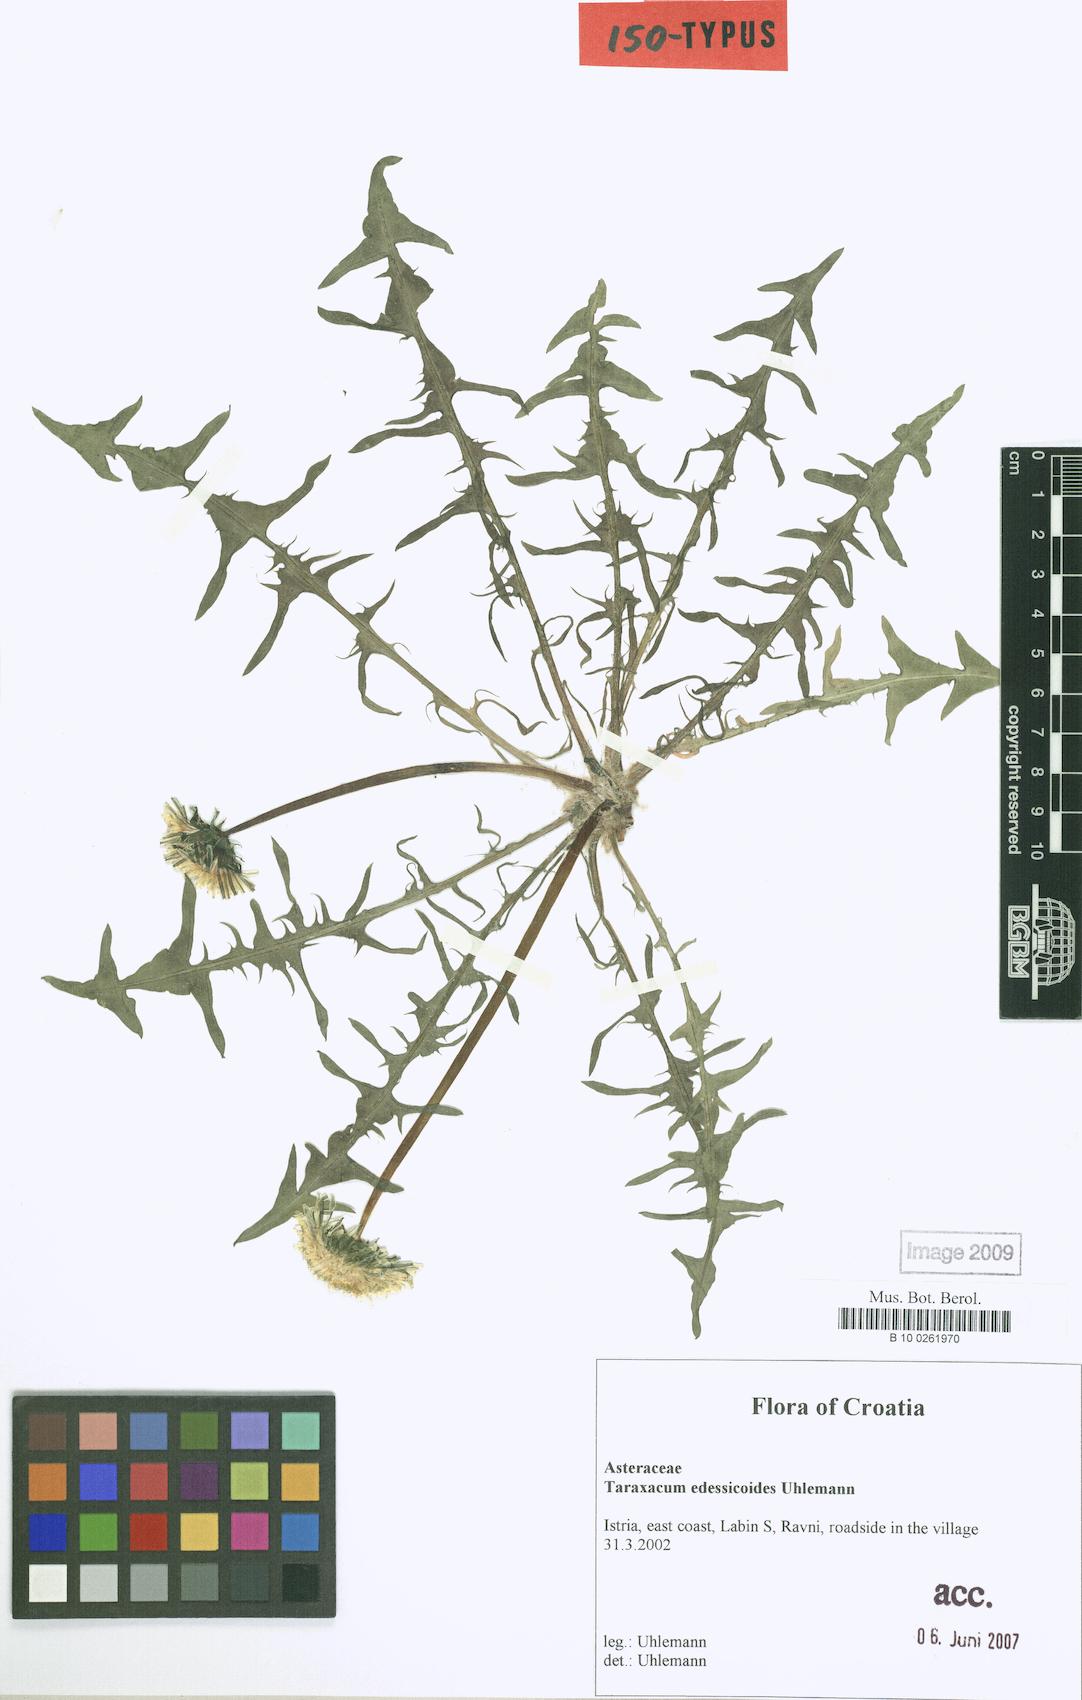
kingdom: Plantae
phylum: Tracheophyta
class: Magnoliopsida
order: Asterales
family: Asteraceae
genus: Taraxacum
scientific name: Taraxacum edessicoides
